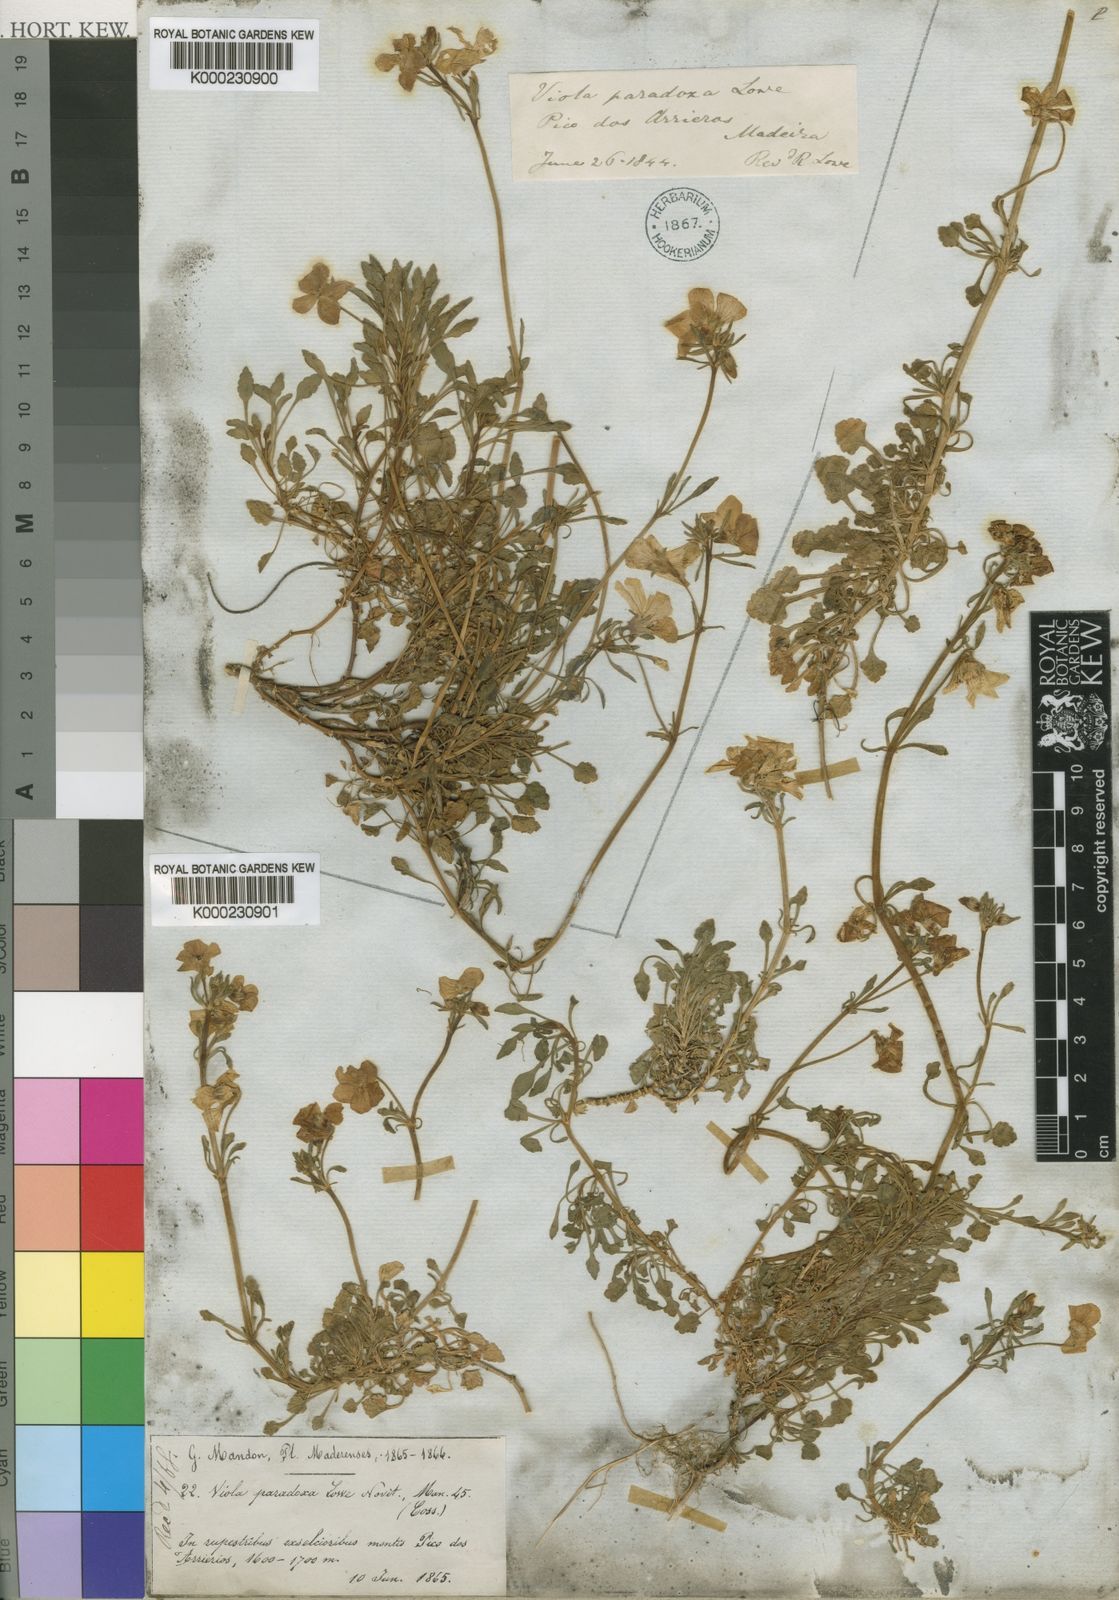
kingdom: Plantae
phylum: Tracheophyta
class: Magnoliopsida
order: Malpighiales
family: Violaceae
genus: Viola
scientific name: Viola paradoxa
